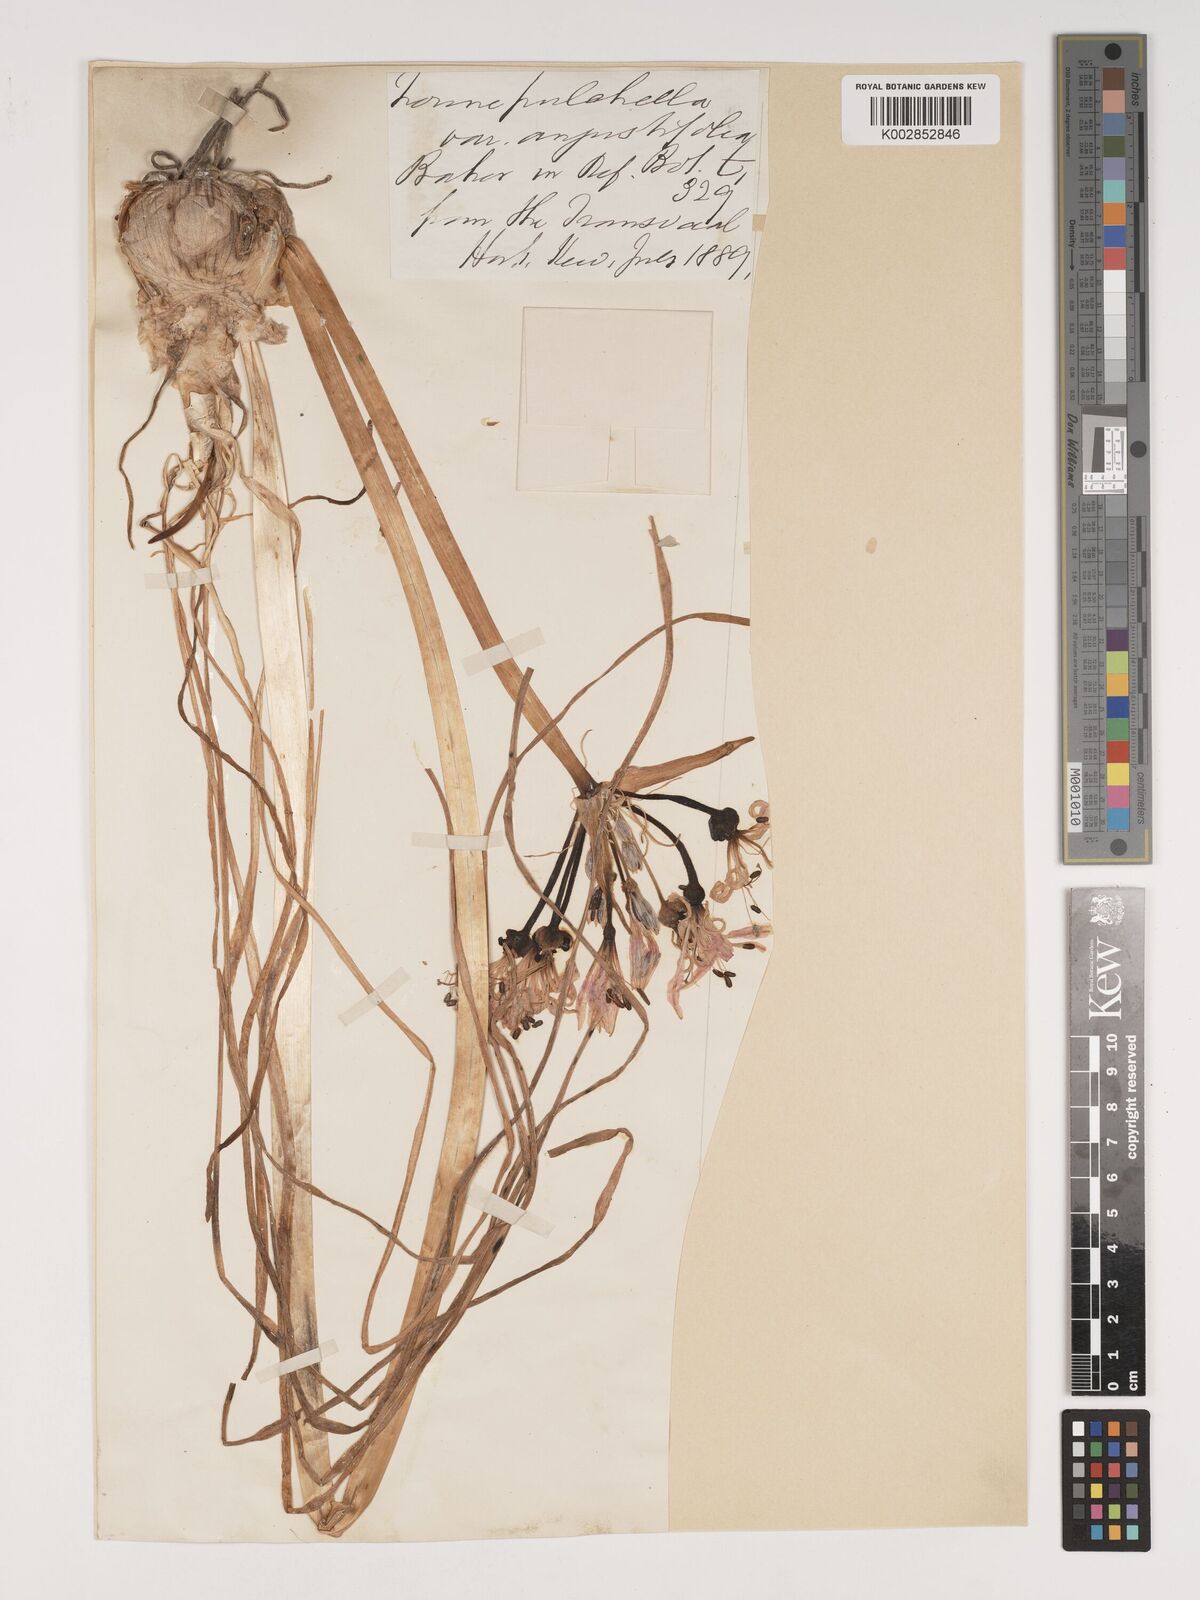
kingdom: Plantae
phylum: Tracheophyta
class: Liliopsida
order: Asparagales
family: Amaryllidaceae
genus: Nerine
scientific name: Nerine
